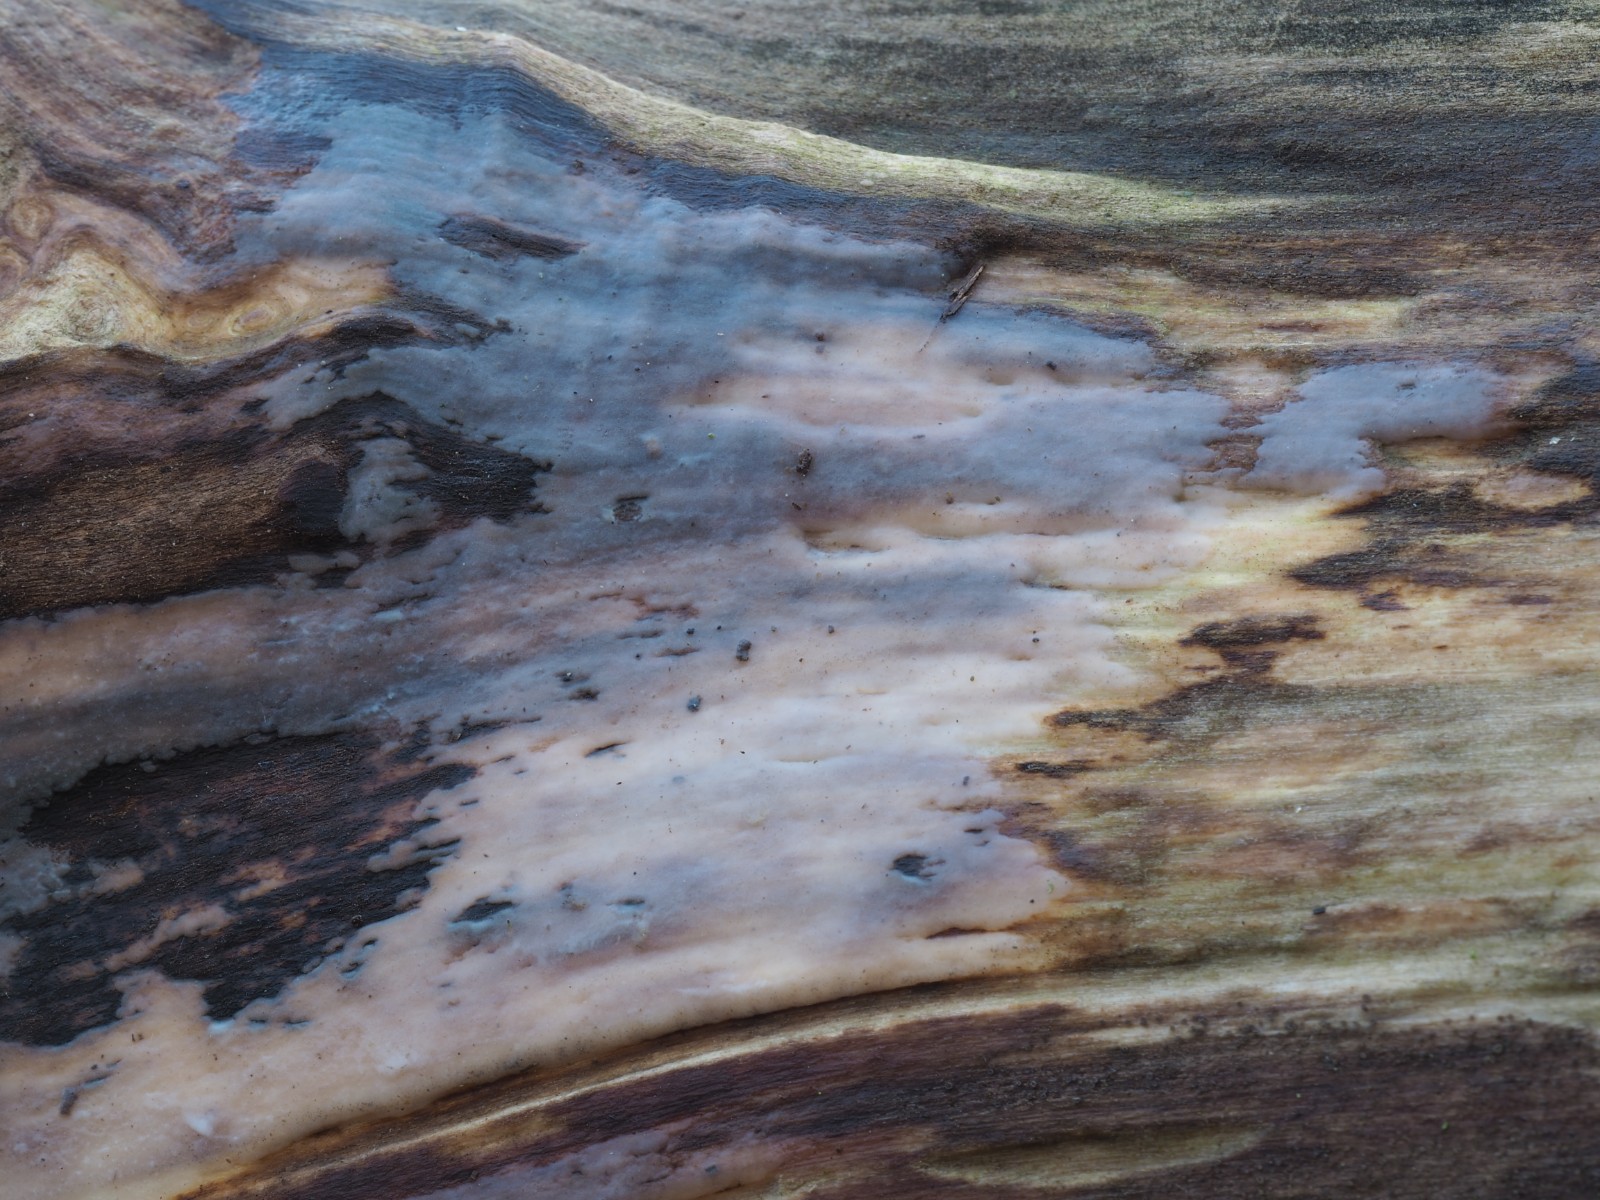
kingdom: Fungi
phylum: Basidiomycota
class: Tremellomycetes
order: Tremellales
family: Exidiaceae
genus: Exidiopsis
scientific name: Exidiopsis effusa
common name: smuk bævrehinde
